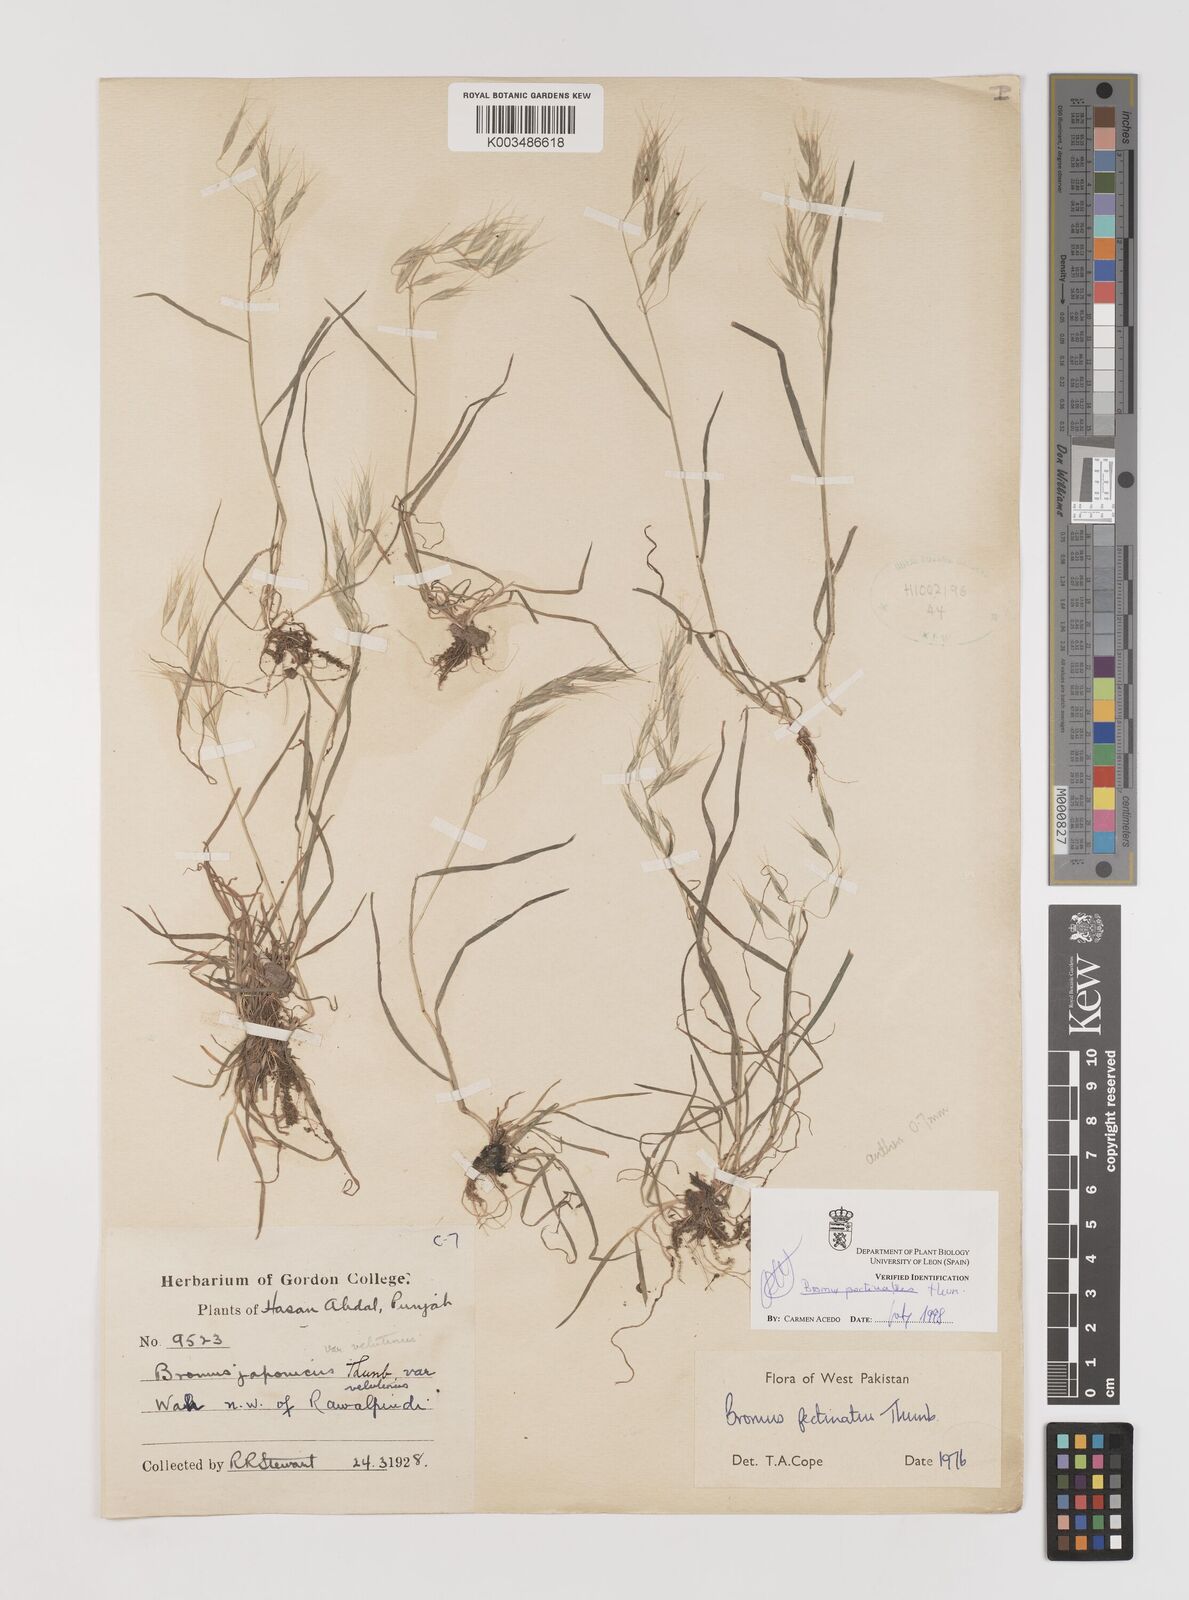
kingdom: Plantae
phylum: Tracheophyta
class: Liliopsida
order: Poales
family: Poaceae
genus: Bromus
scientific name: Bromus pectinatus
